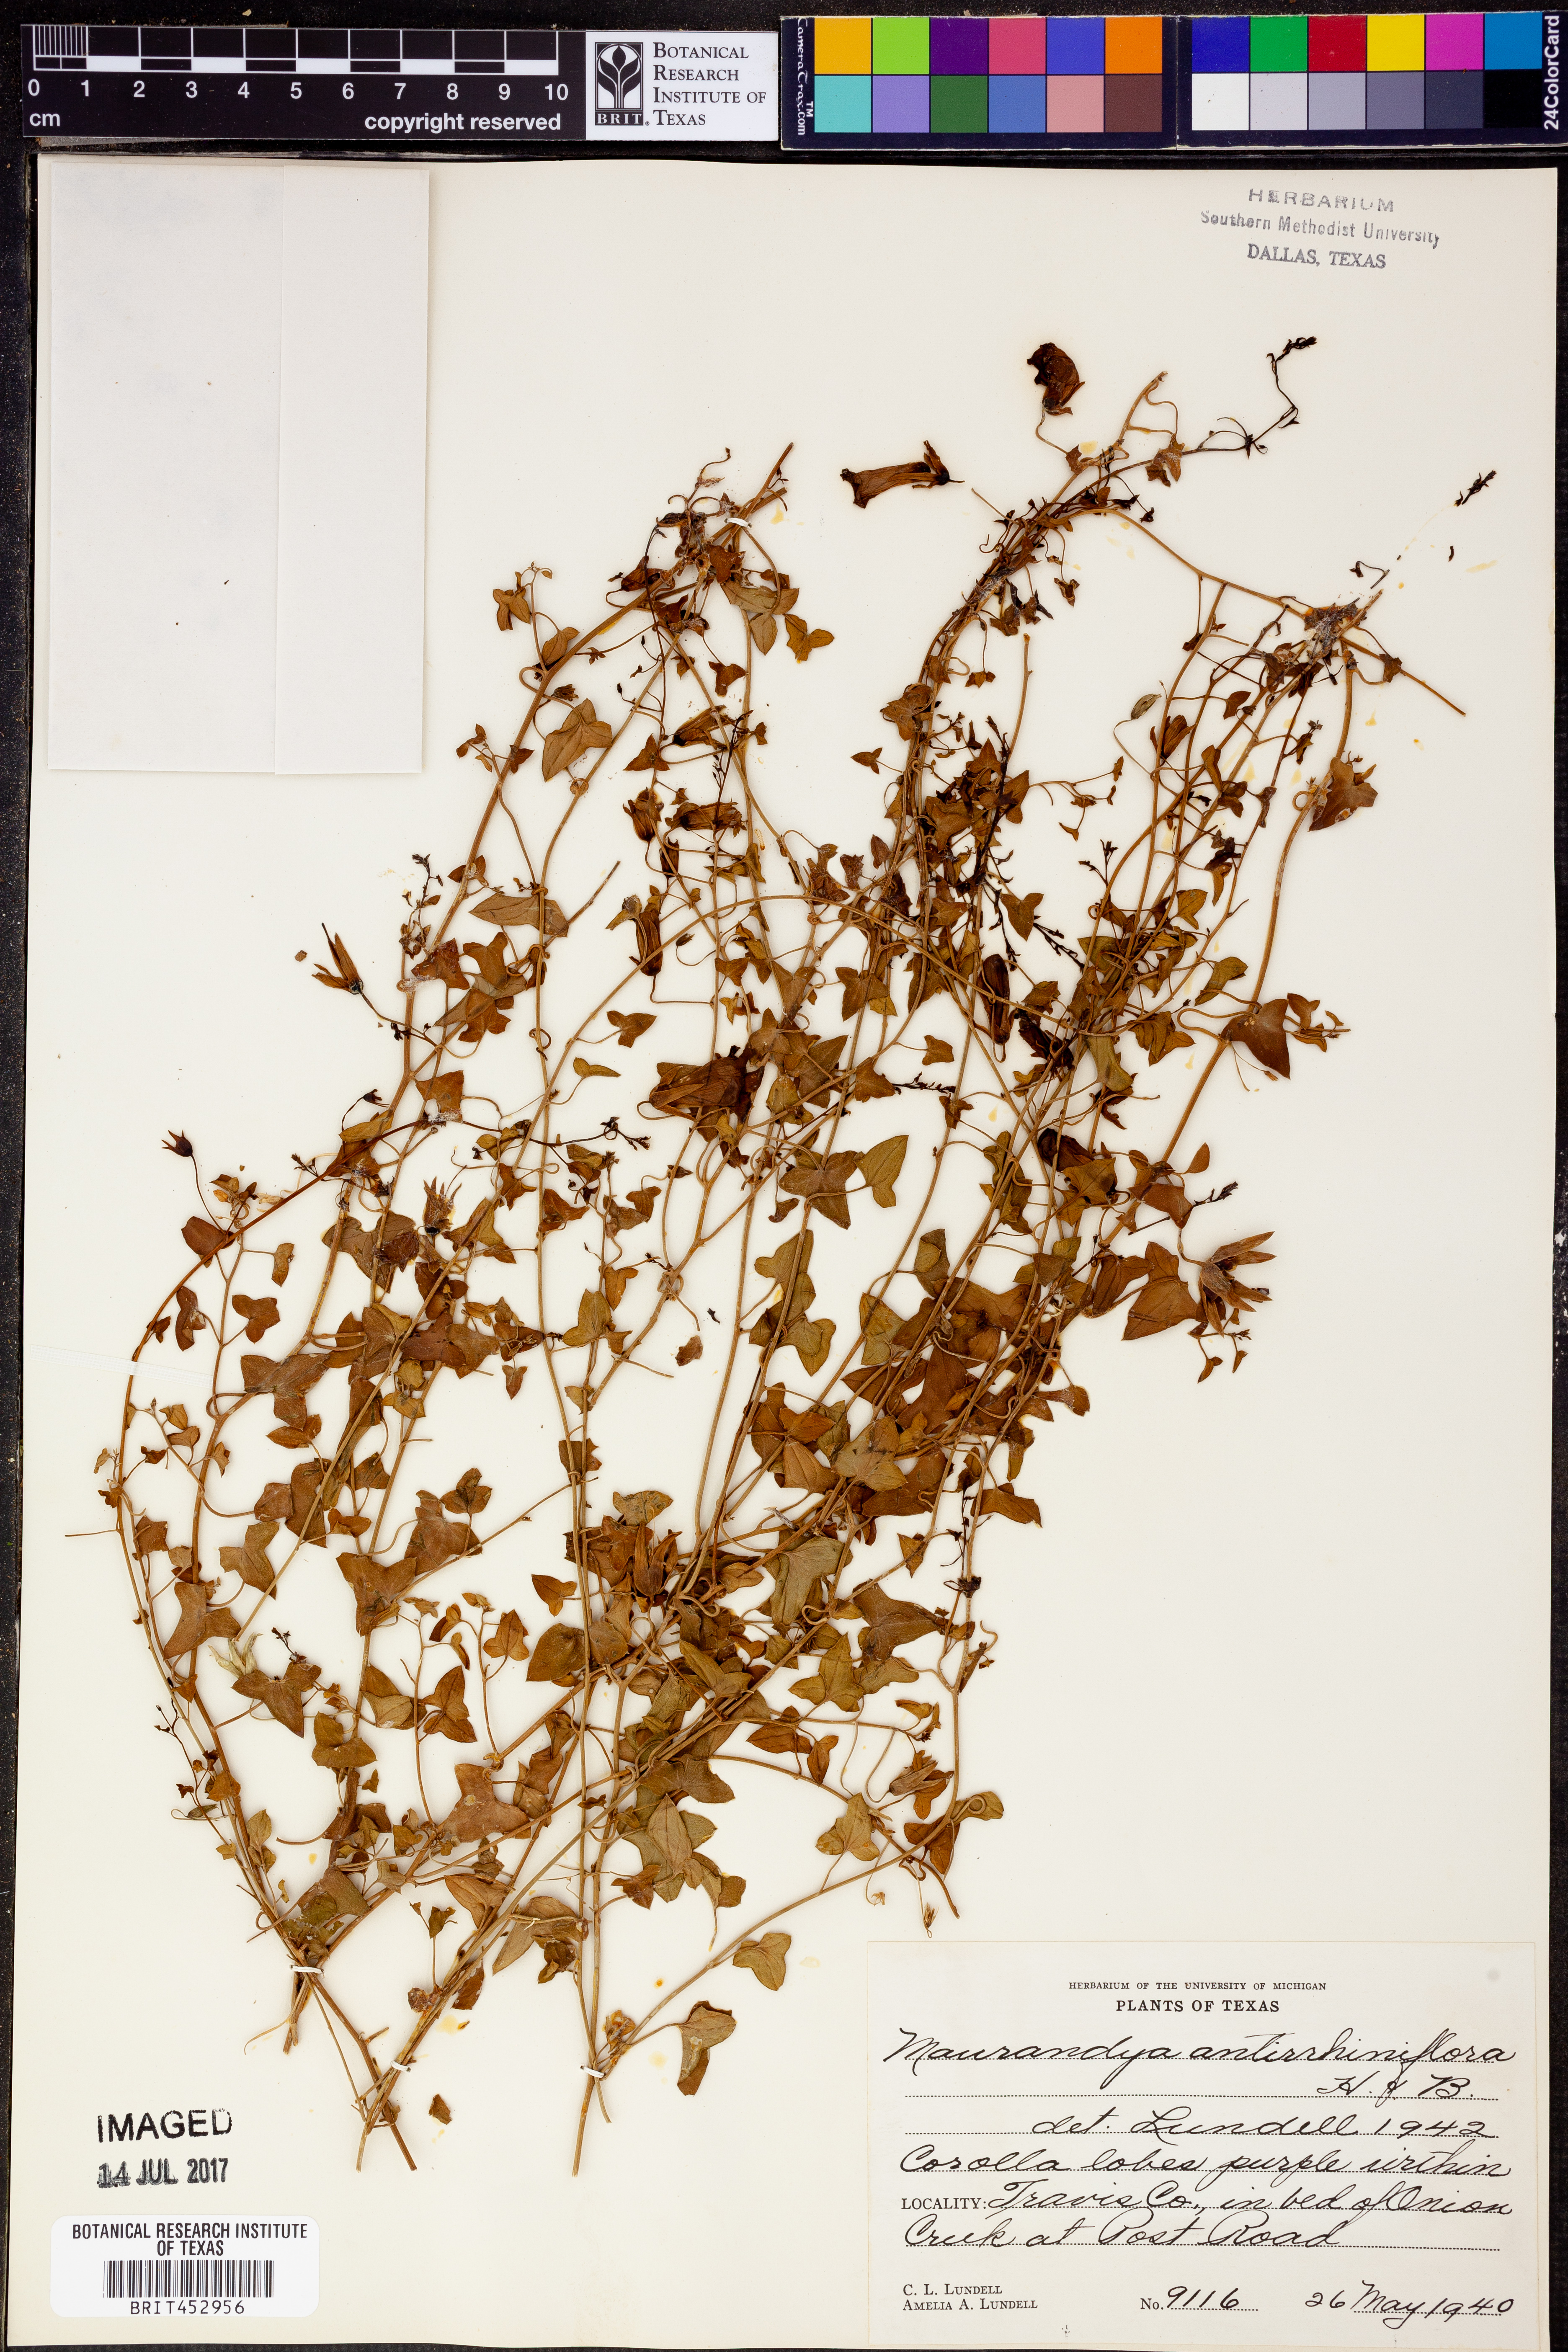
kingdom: Plantae
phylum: Tracheophyta
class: Magnoliopsida
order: Lamiales
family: Plantaginaceae
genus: Maurandella
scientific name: Maurandella antirrhiniflora
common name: Violet twining-snapdragon
